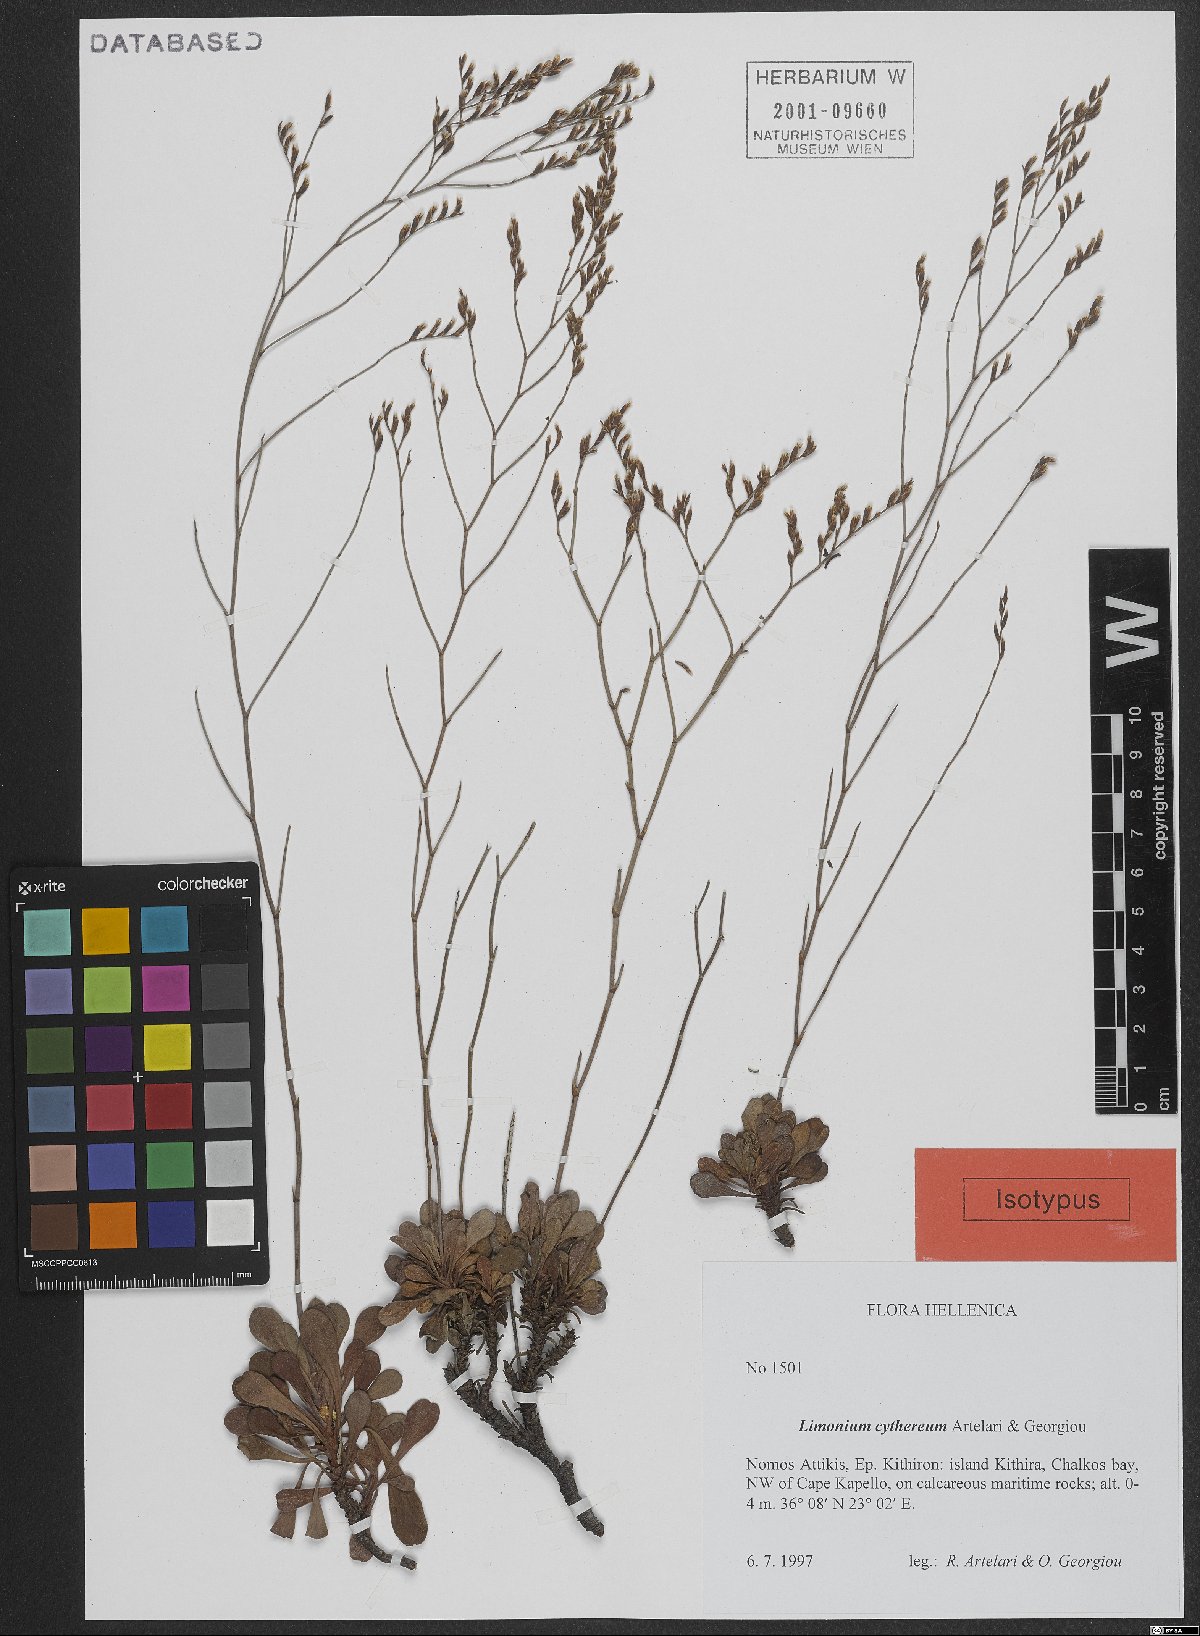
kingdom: Plantae
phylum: Tracheophyta
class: Magnoliopsida
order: Caryophyllales
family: Plumbaginaceae
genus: Limonium
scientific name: Limonium cythereum
